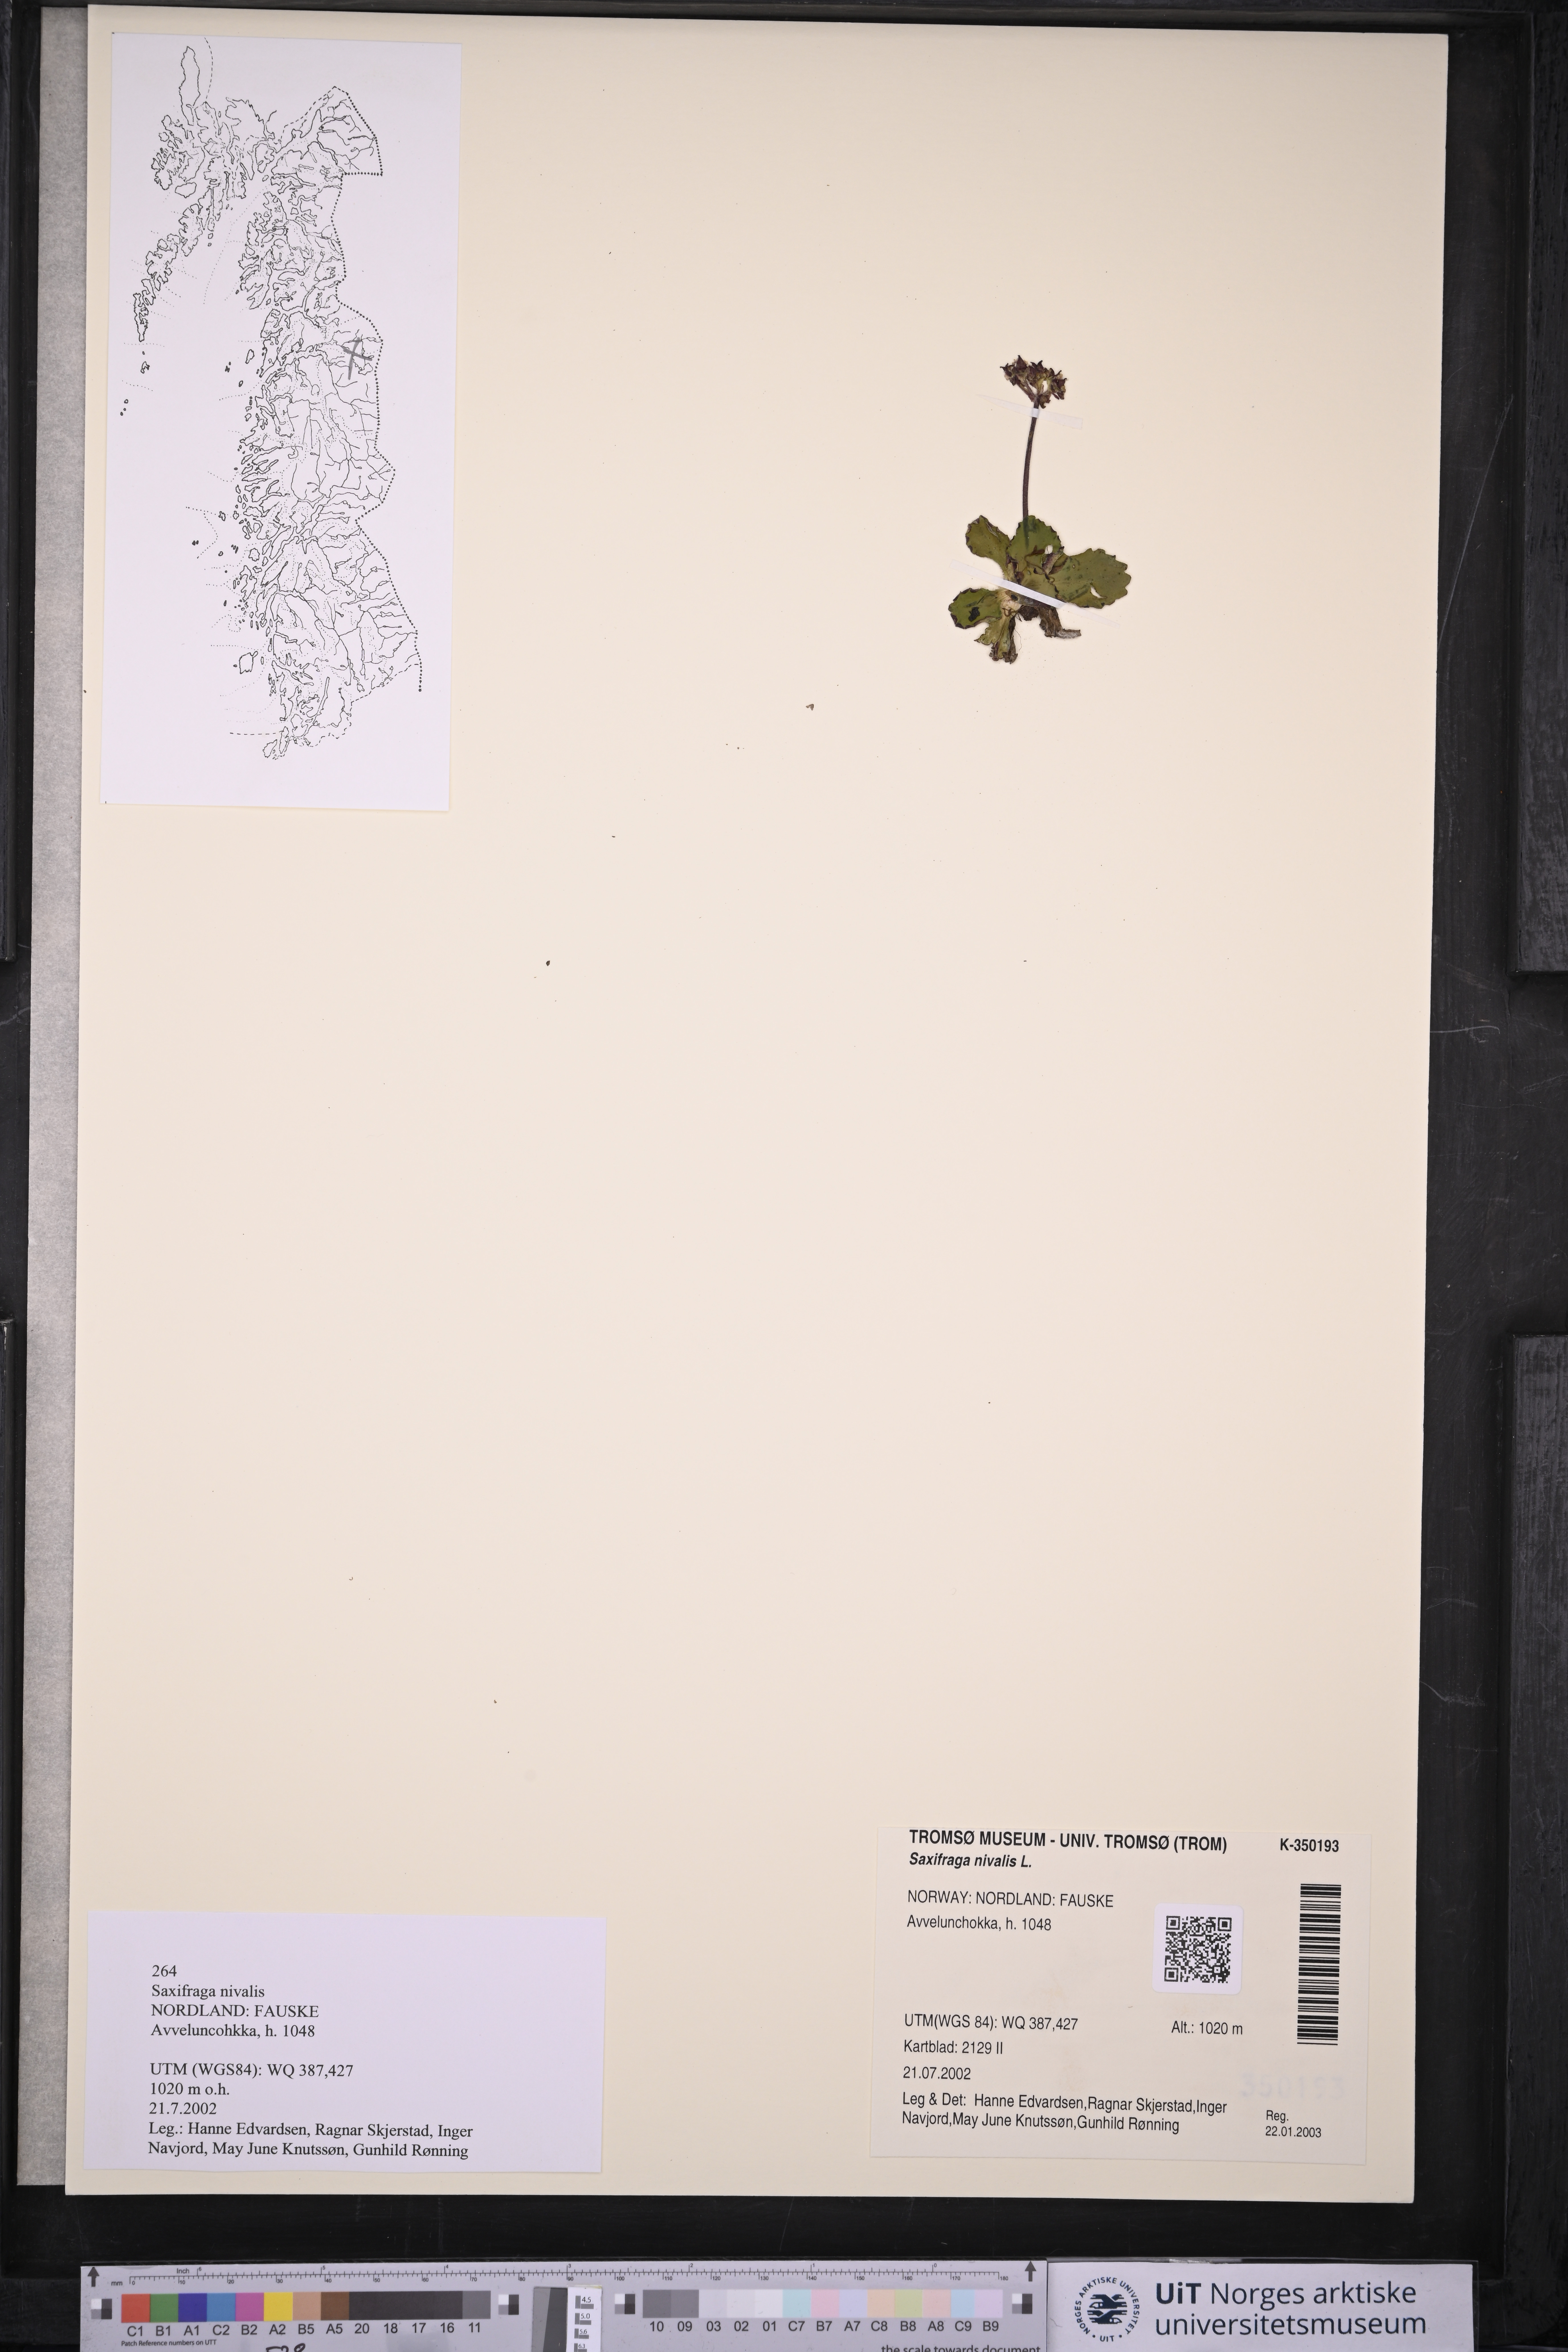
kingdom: Plantae
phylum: Tracheophyta
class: Magnoliopsida
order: Saxifragales
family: Saxifragaceae
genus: Micranthes
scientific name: Micranthes nivalis
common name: Alpine saxifrage
